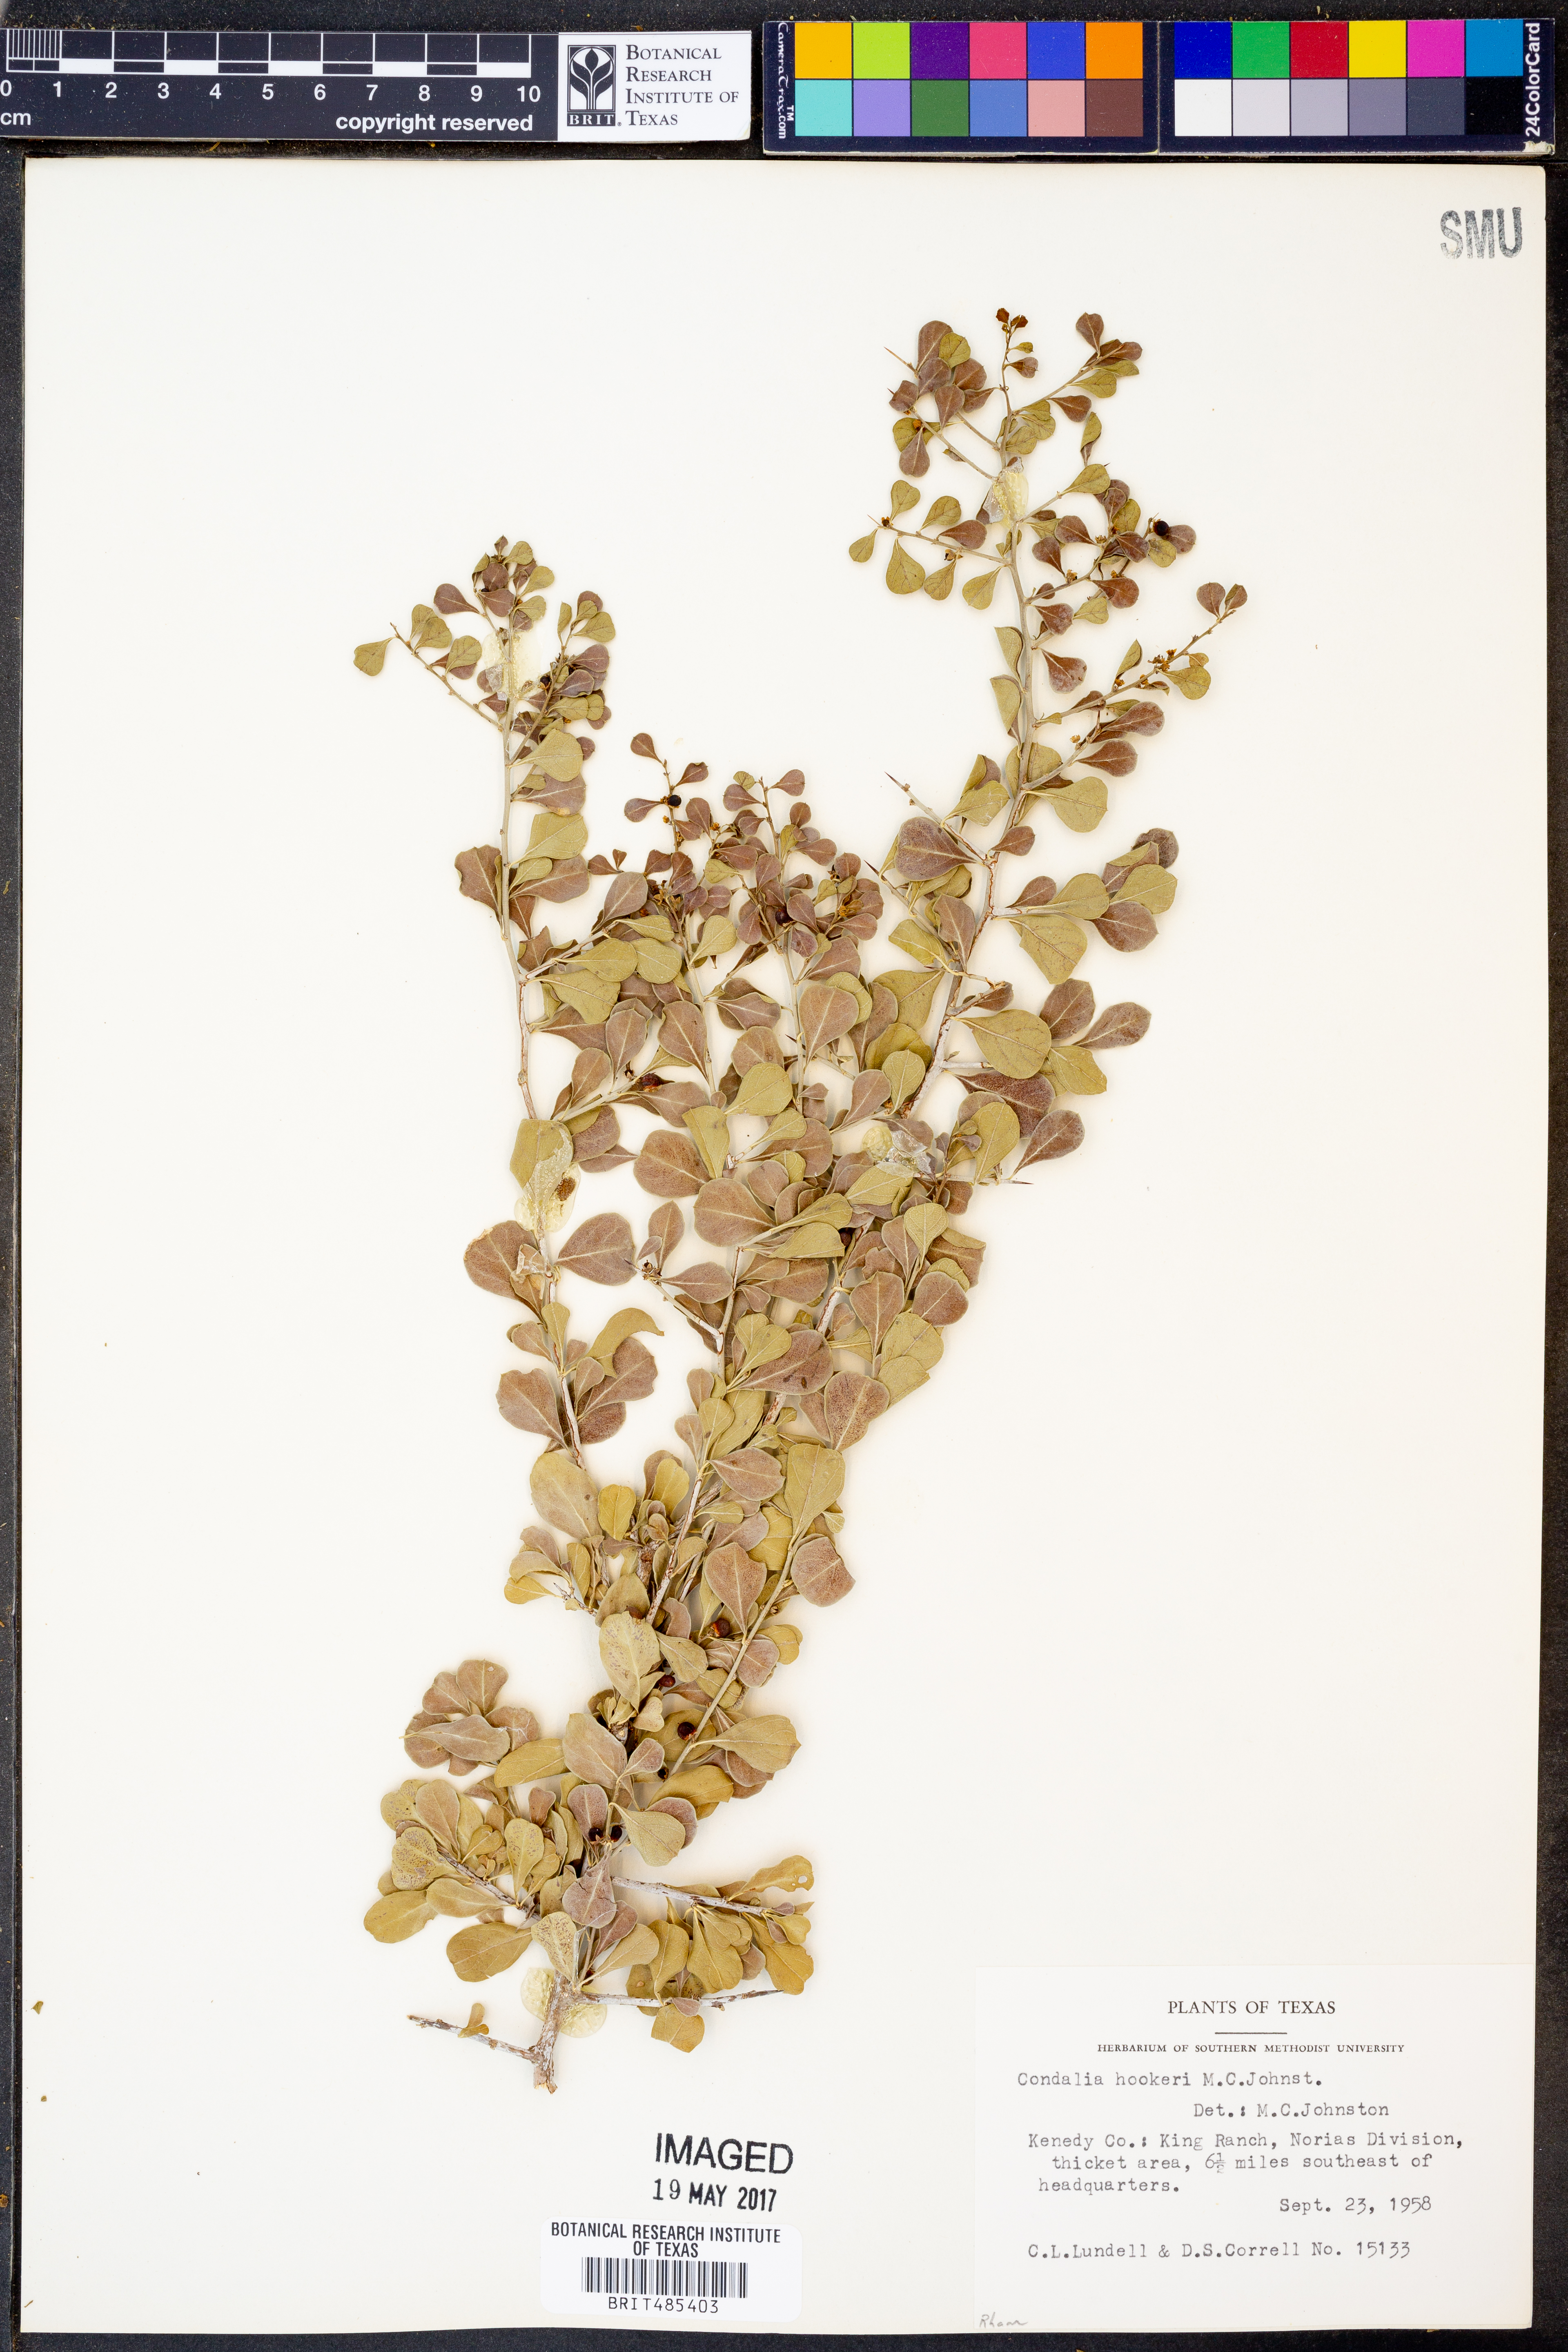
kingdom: Plantae
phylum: Tracheophyta
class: Magnoliopsida
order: Rosales
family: Rhamnaceae
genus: Condalia
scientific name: Condalia hookeri
